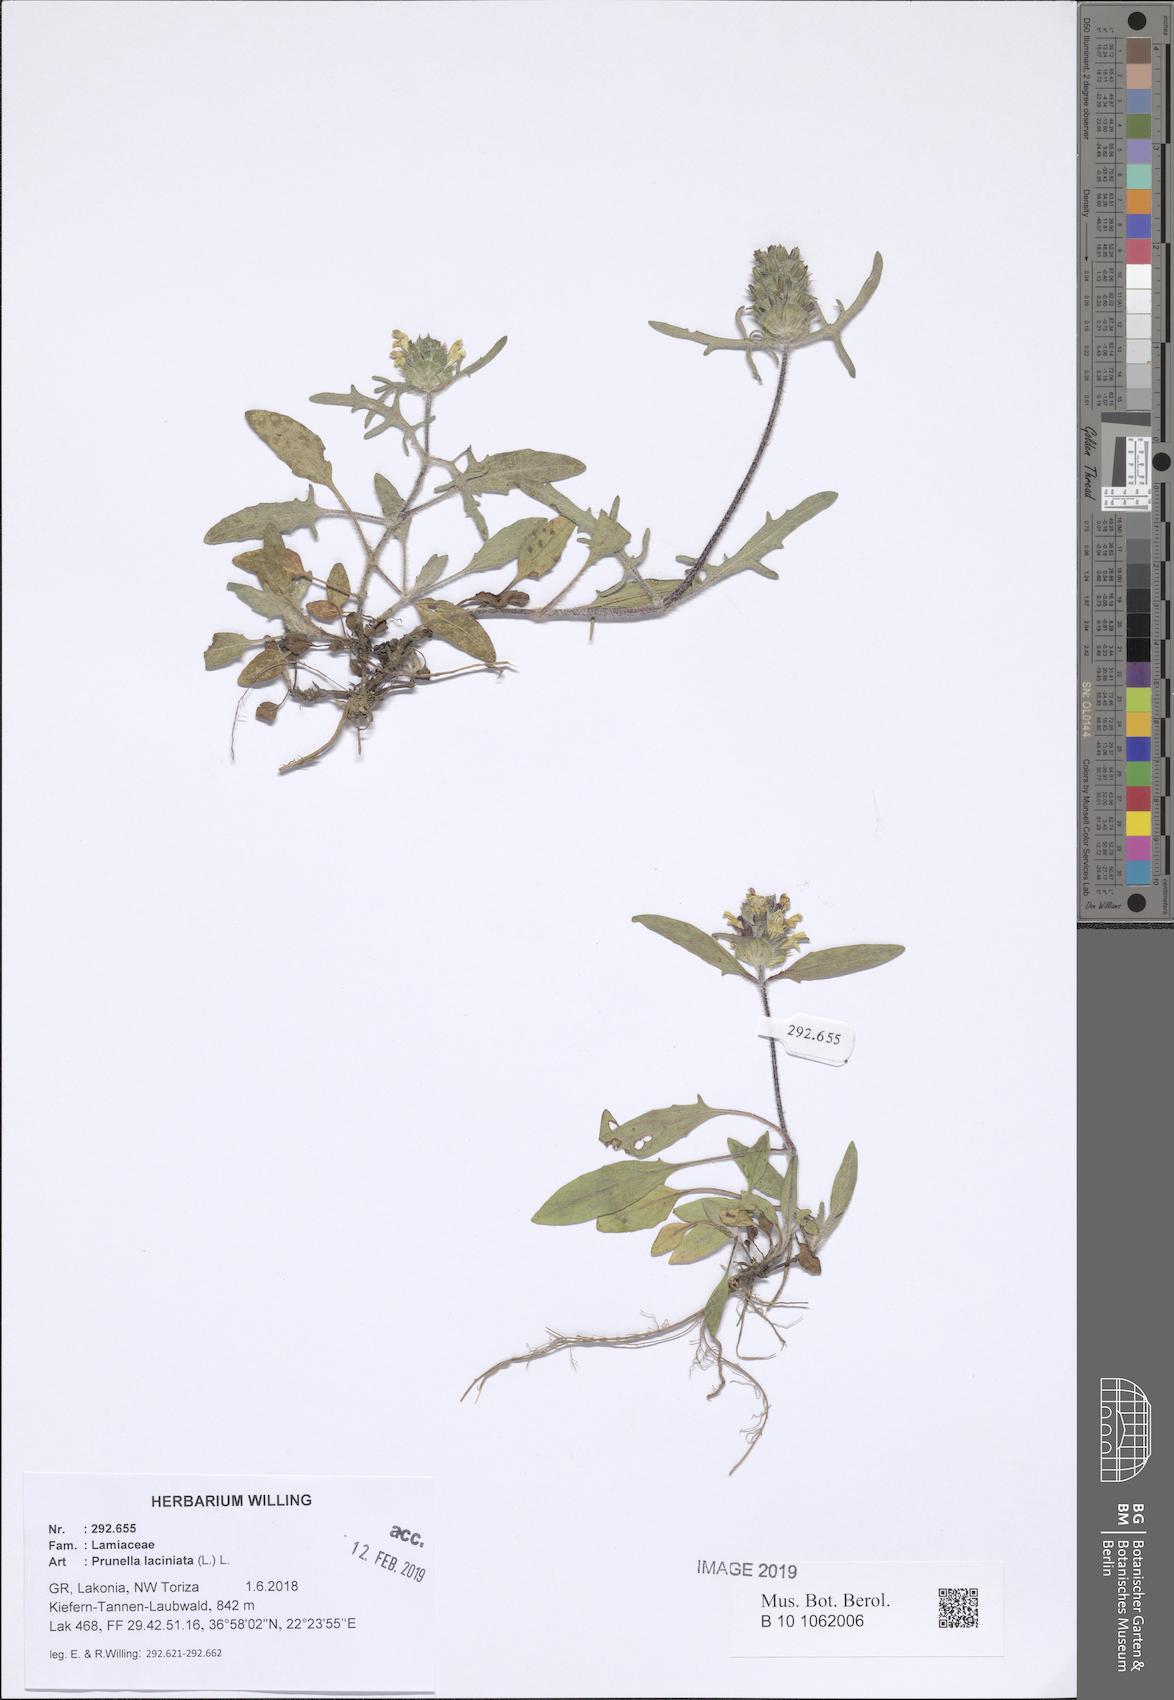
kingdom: Plantae
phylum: Tracheophyta
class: Magnoliopsida
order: Lamiales
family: Lamiaceae
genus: Prunella
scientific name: Prunella laciniata
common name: Cut-leaved selfheal
